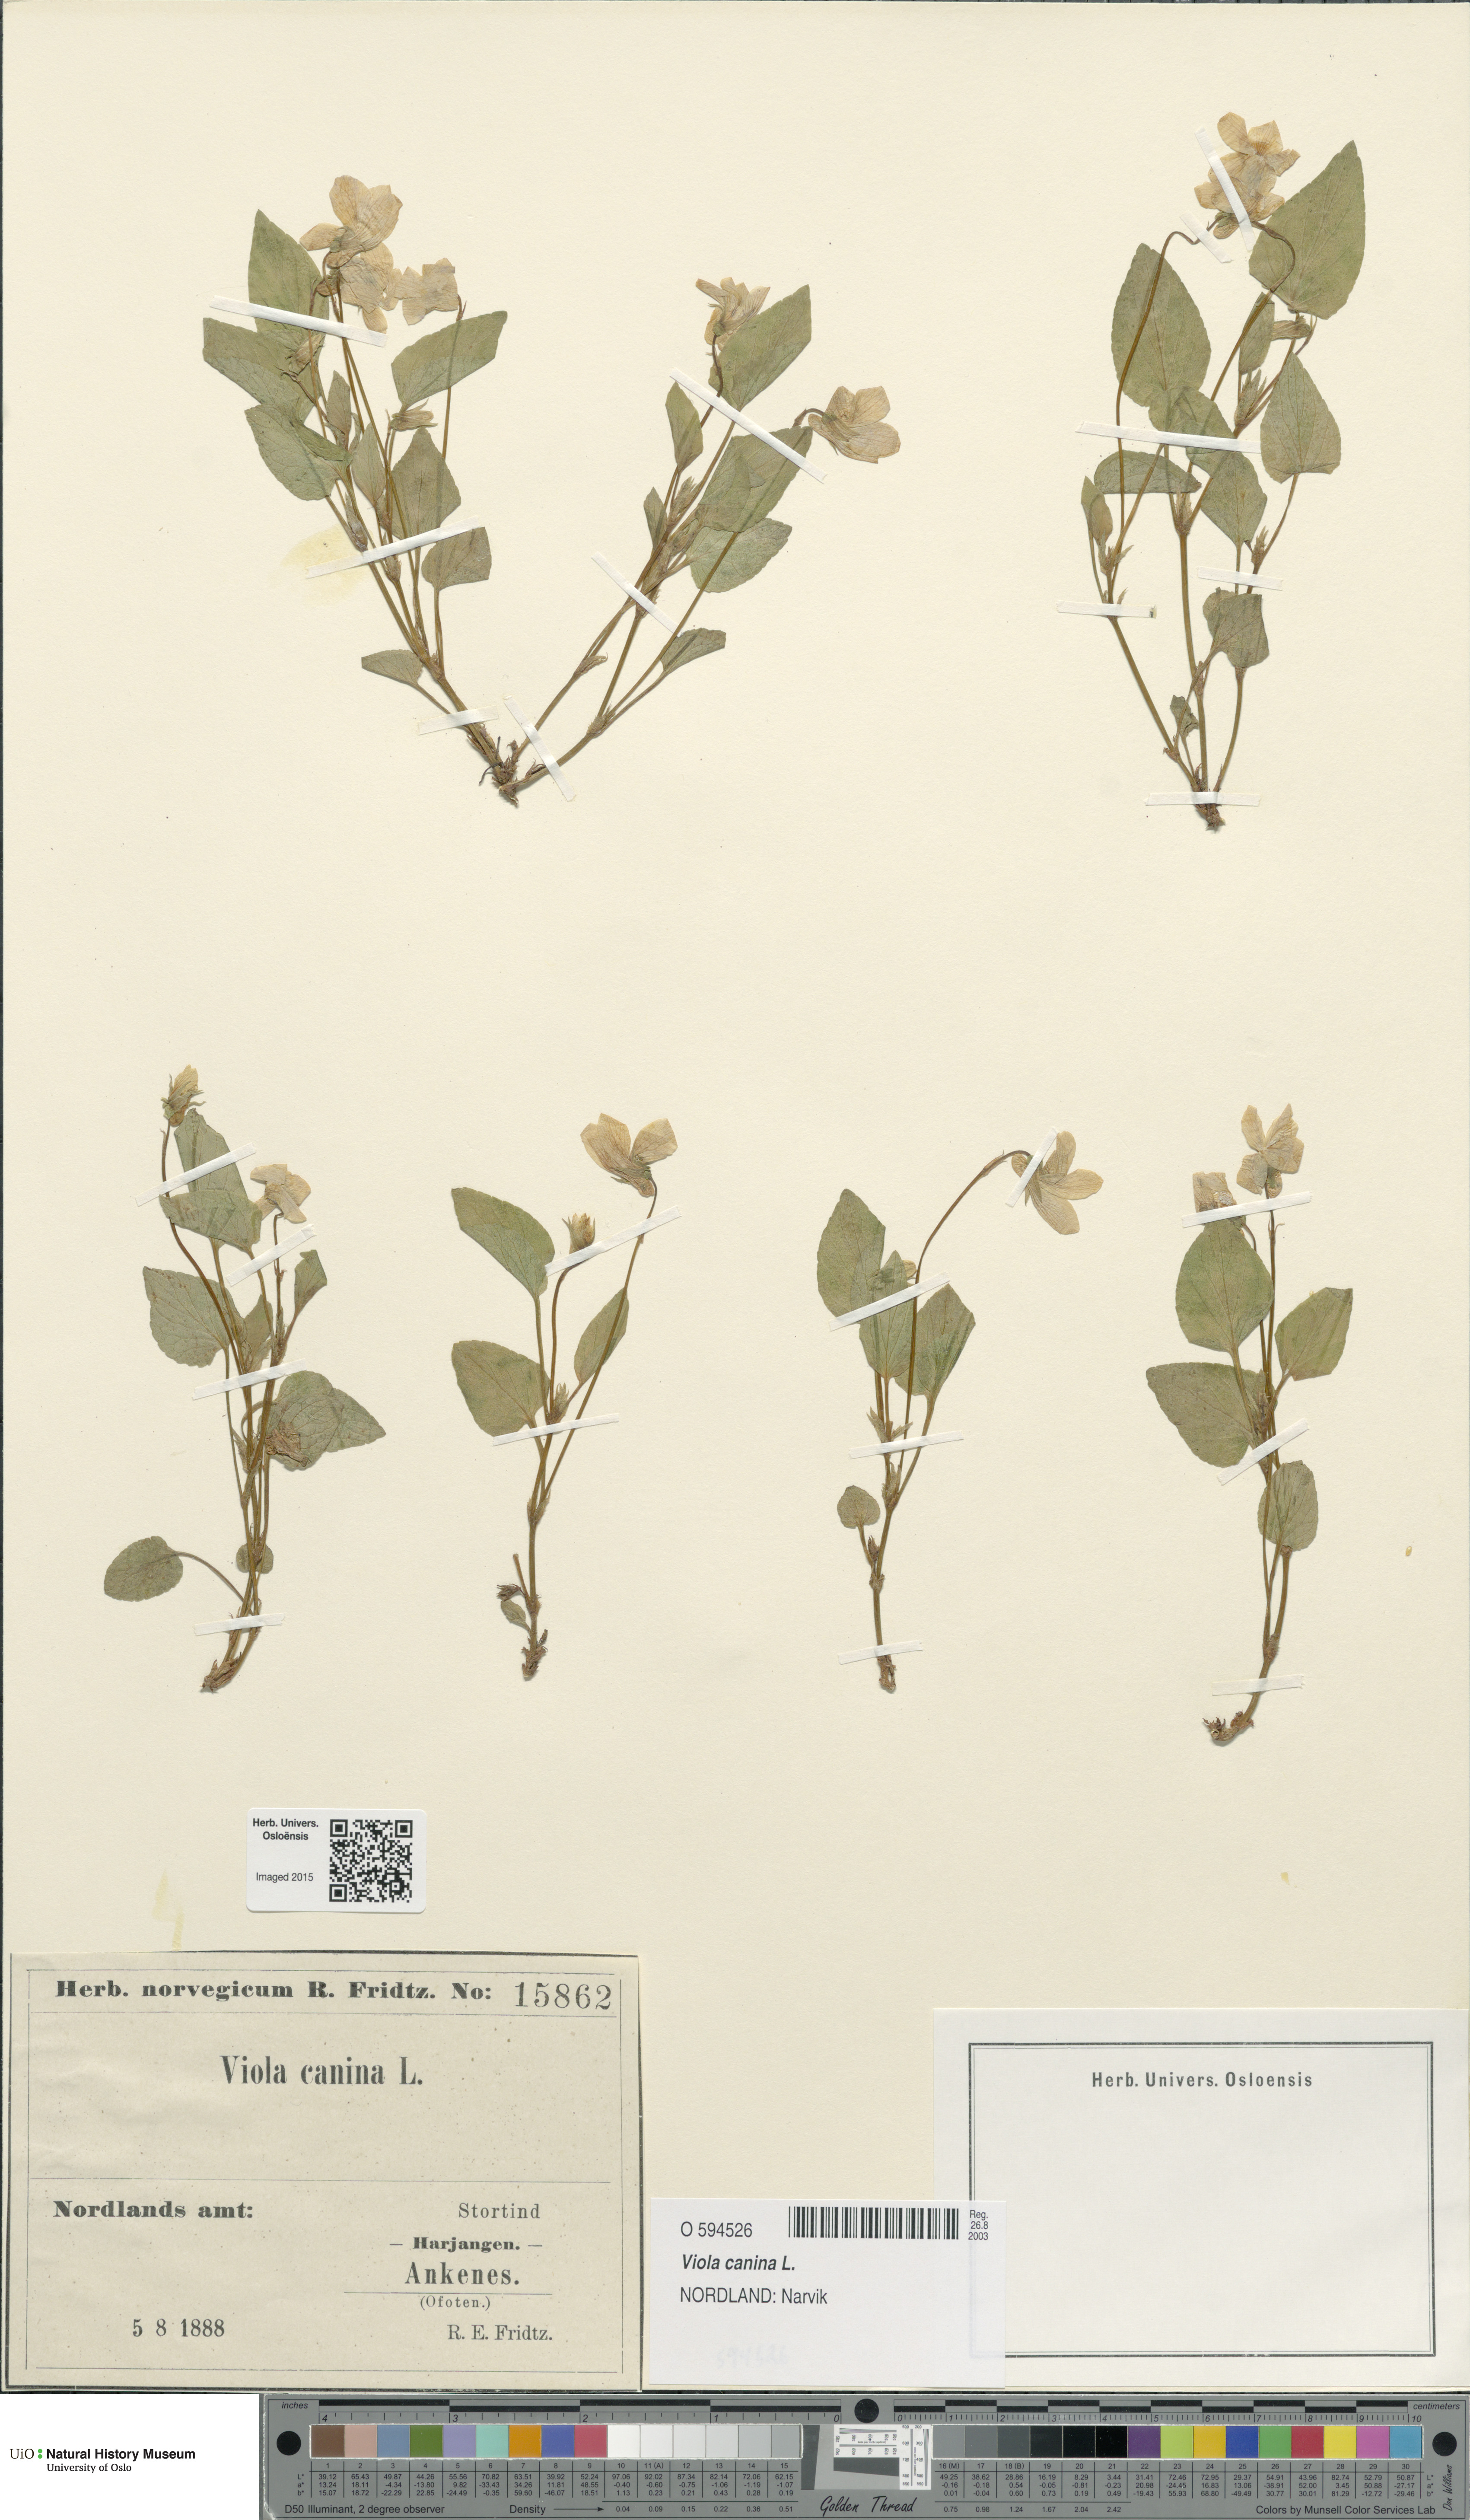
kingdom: Plantae
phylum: Tracheophyta
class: Magnoliopsida
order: Malpighiales
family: Violaceae
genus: Viola
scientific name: Viola canina
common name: Heath dog-violet
